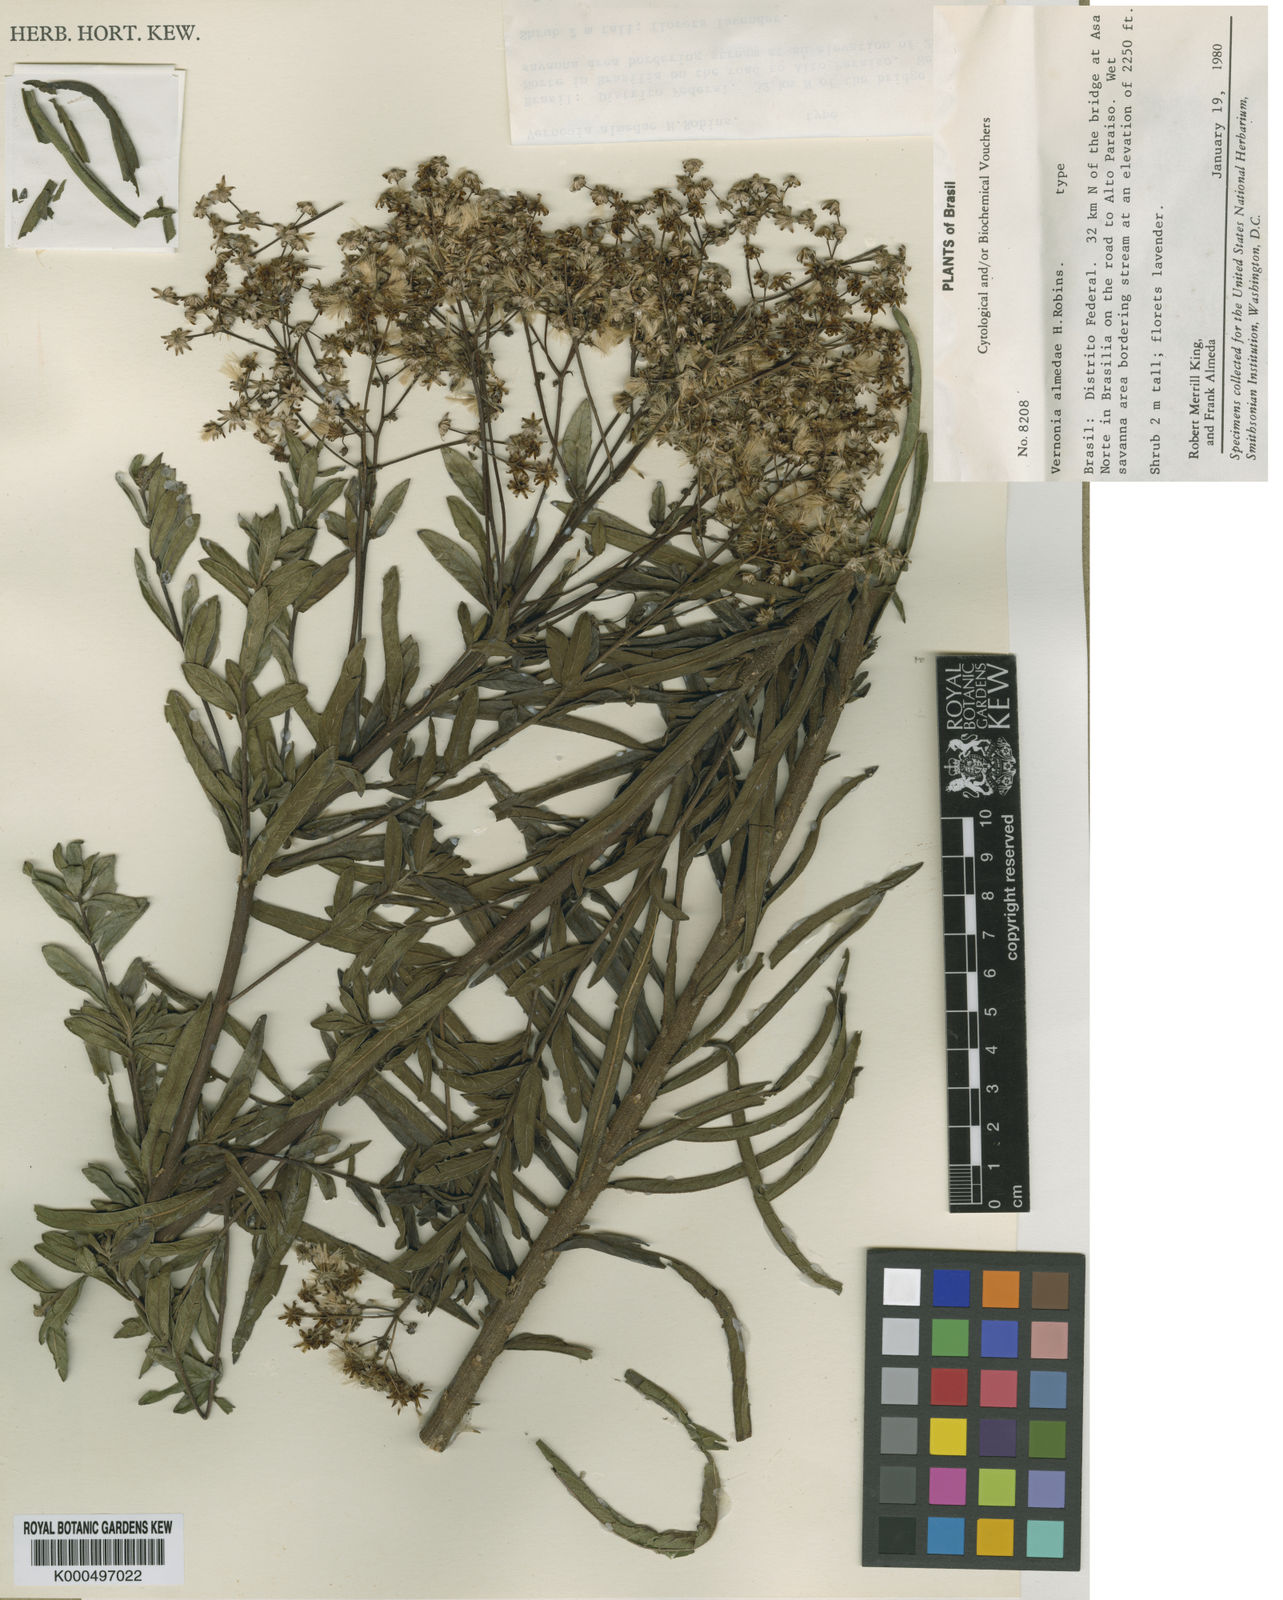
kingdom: Plantae
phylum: Tracheophyta
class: Magnoliopsida
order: Asterales
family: Asteraceae
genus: Vernonanthura
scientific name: Vernonanthura almedae
